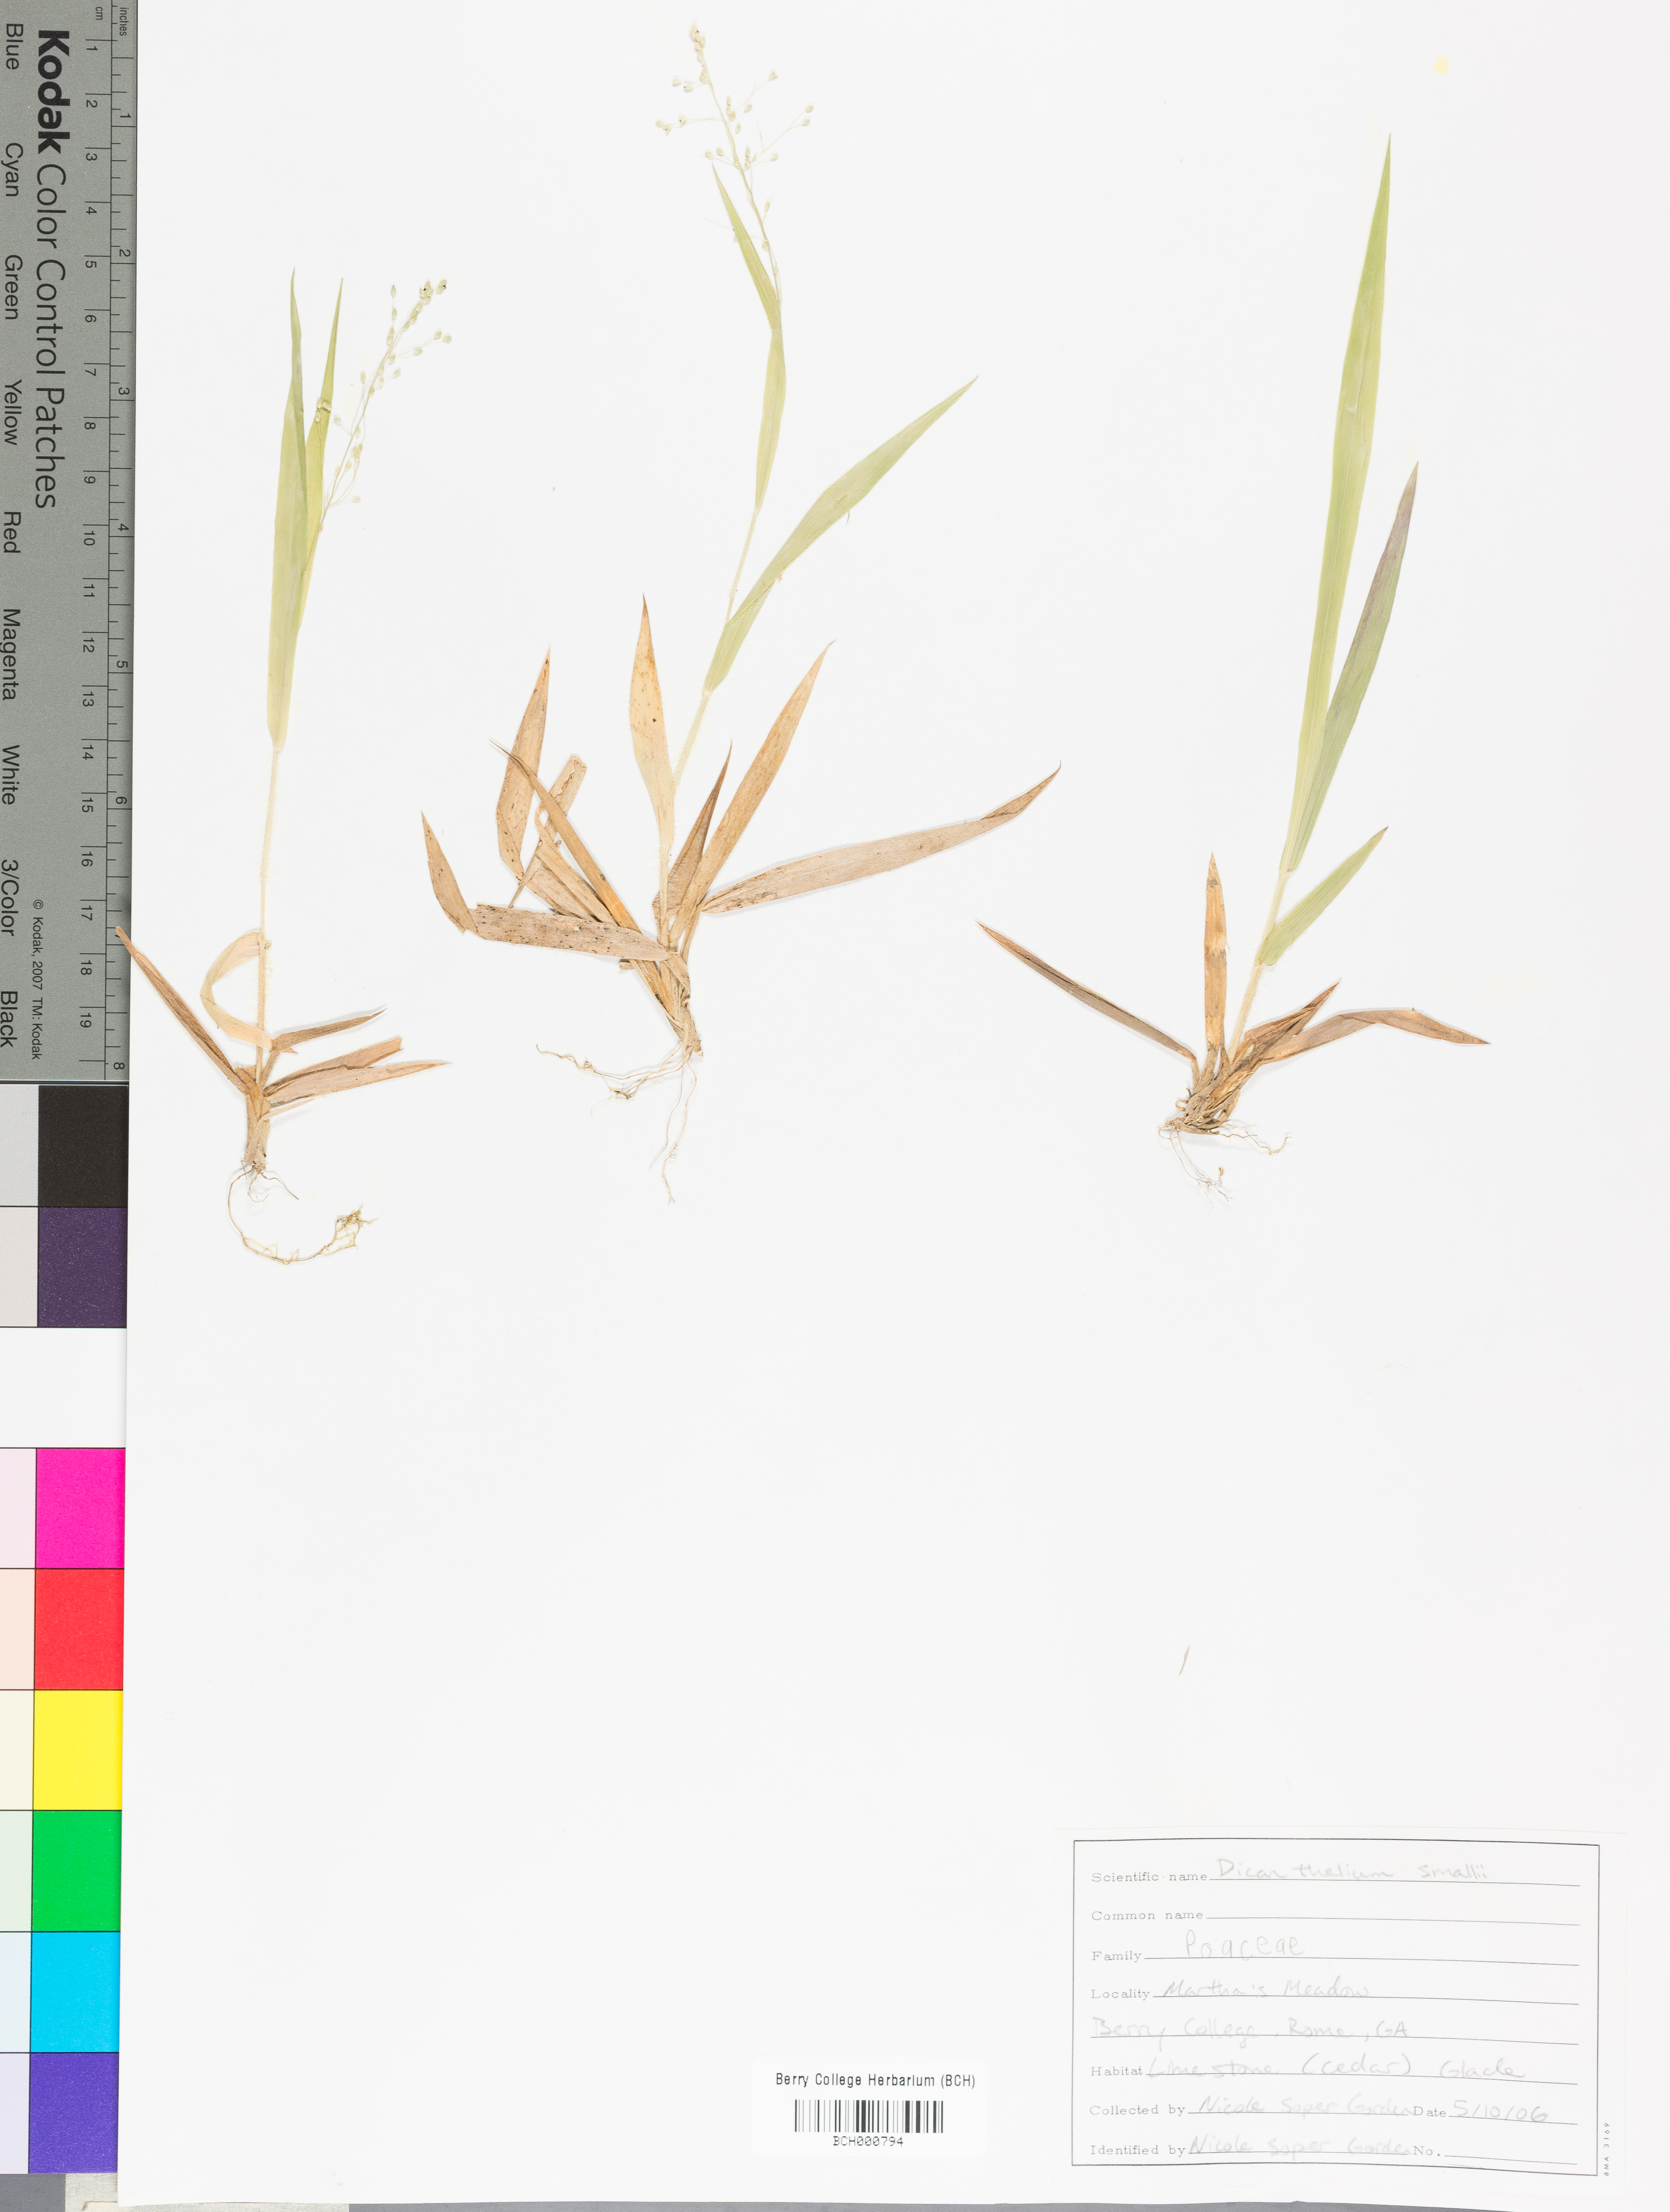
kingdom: Plantae
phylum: Tracheophyta
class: Liliopsida
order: Poales
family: Poaceae
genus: Dichanthelium
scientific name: Dichanthelium
